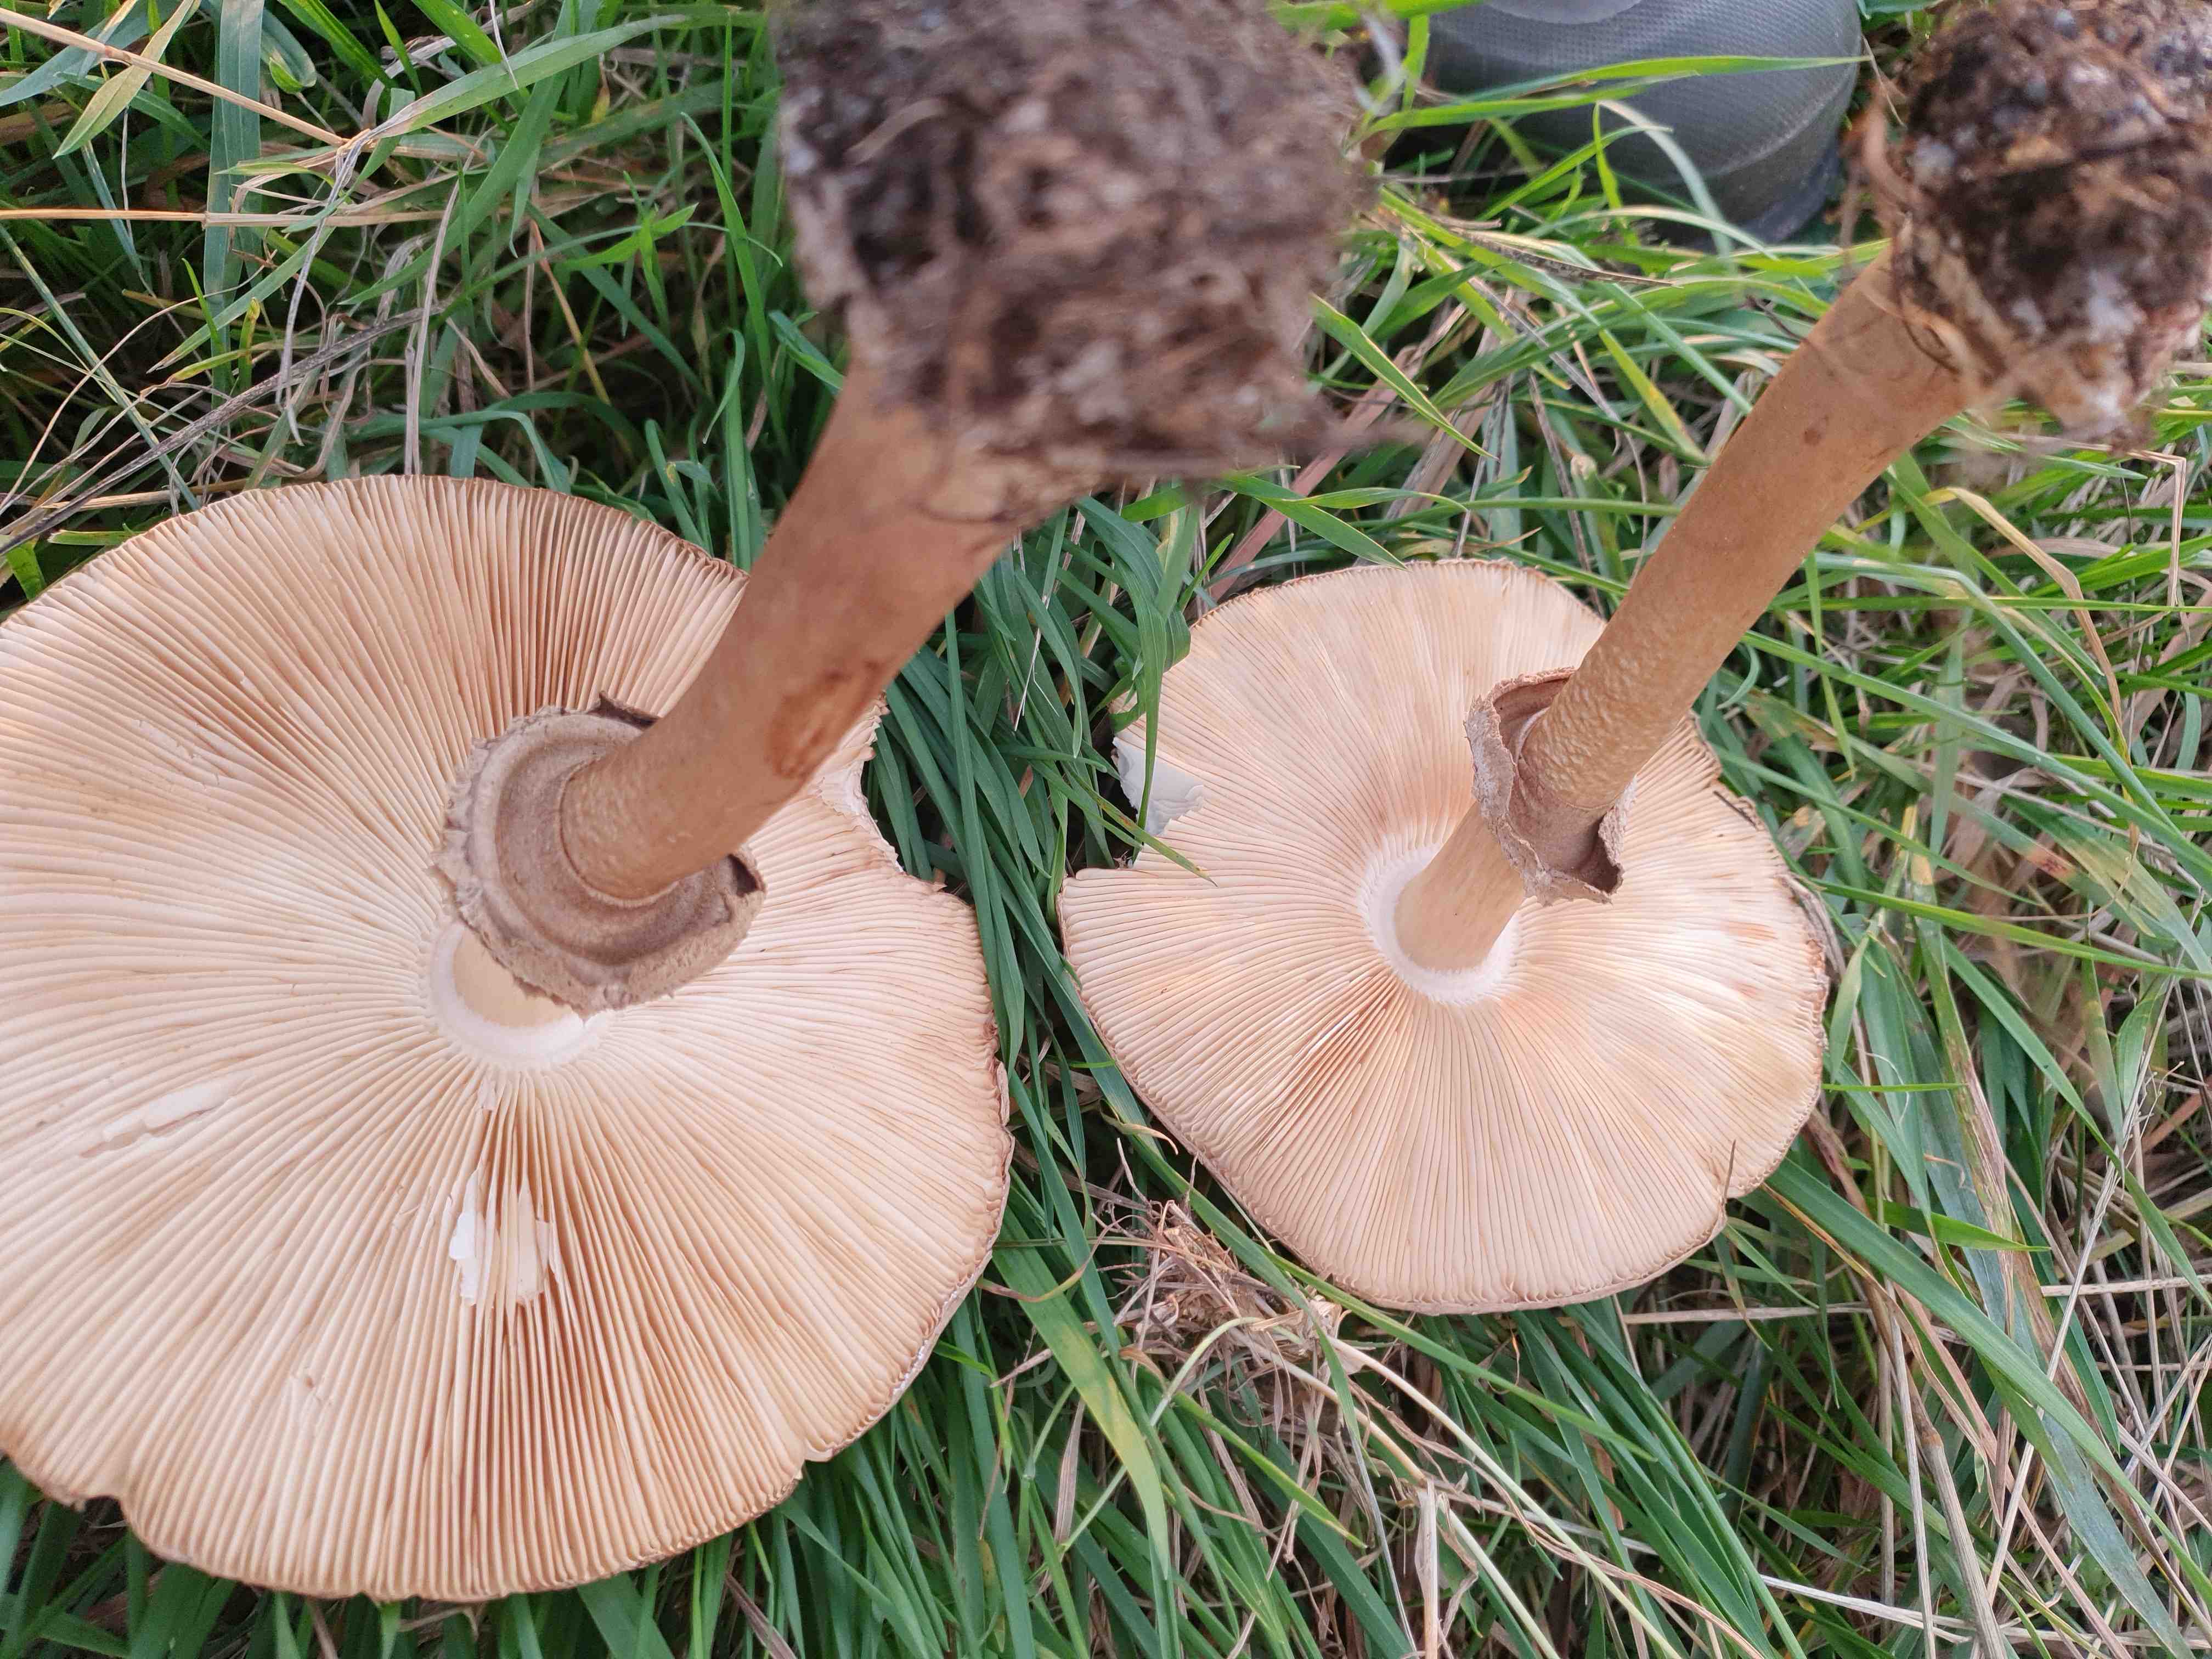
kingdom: Fungi
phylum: Basidiomycota
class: Agaricomycetes
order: Agaricales
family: Agaricaceae
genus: Chlorophyllum
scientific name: Chlorophyllum rhacodes
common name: ægte rabarberhat
